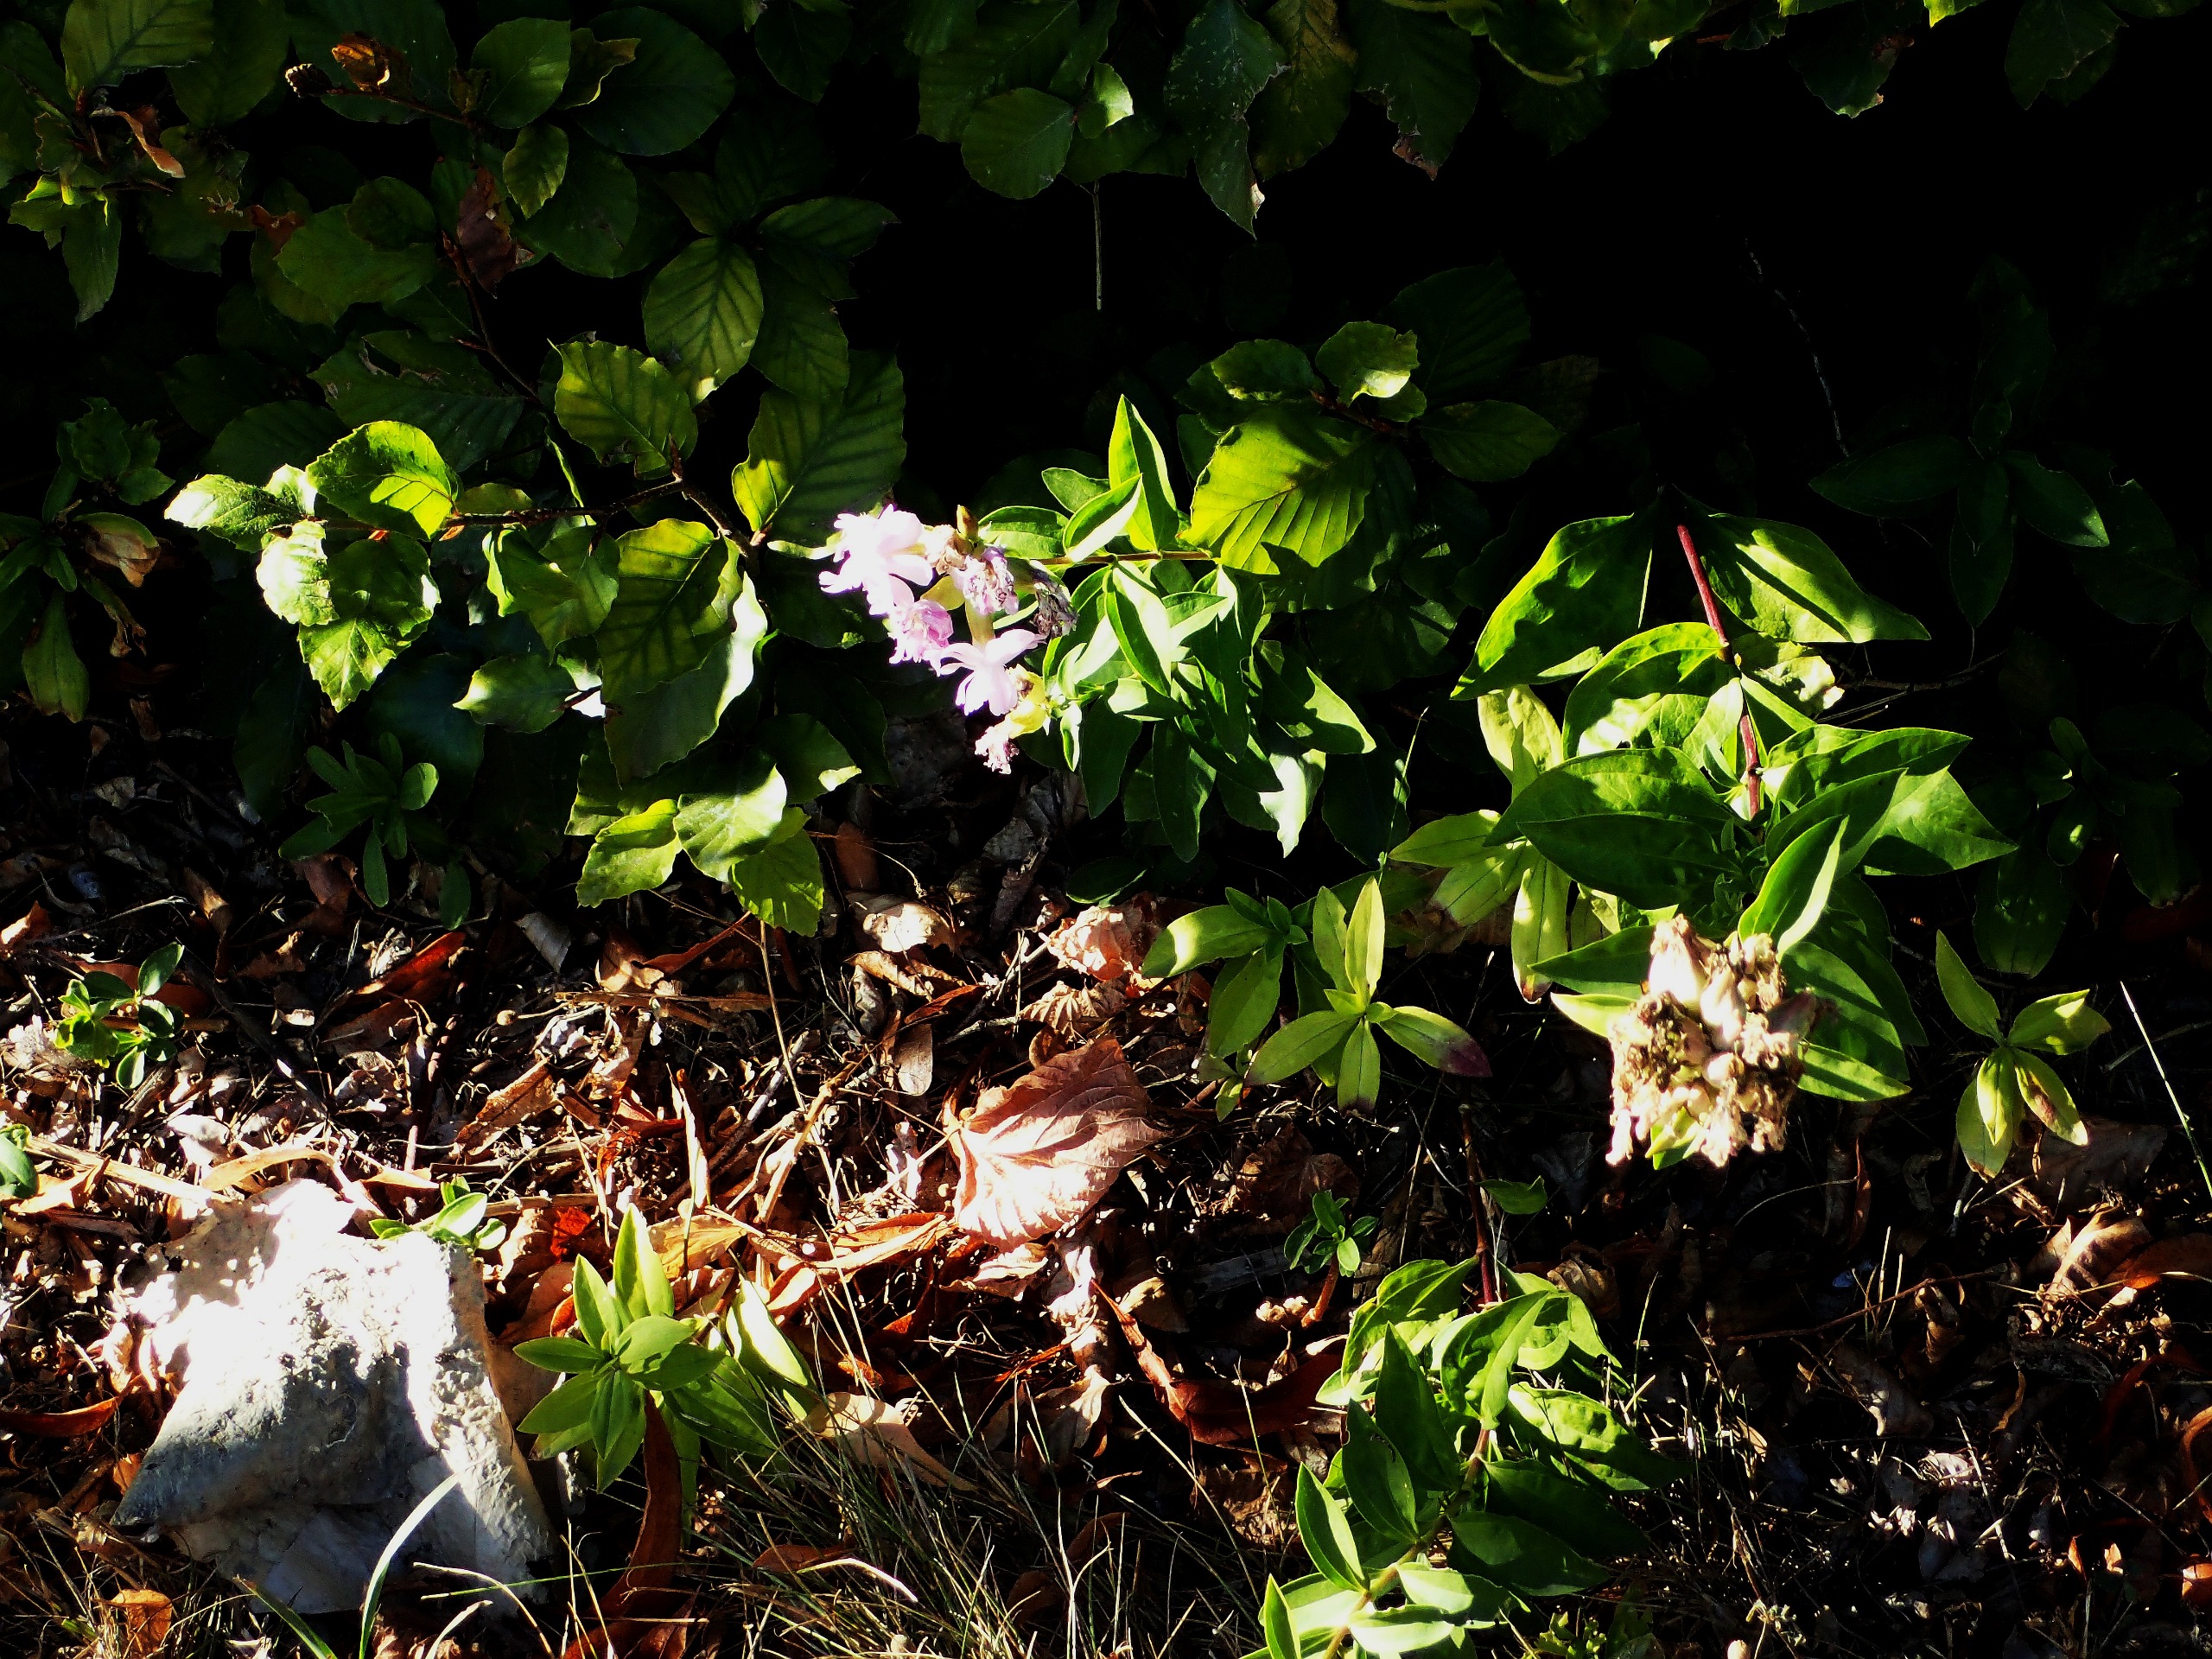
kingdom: Plantae
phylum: Tracheophyta
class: Magnoliopsida
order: Caryophyllales
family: Caryophyllaceae
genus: Saponaria
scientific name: Saponaria officinalis
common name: Sæbeurt
